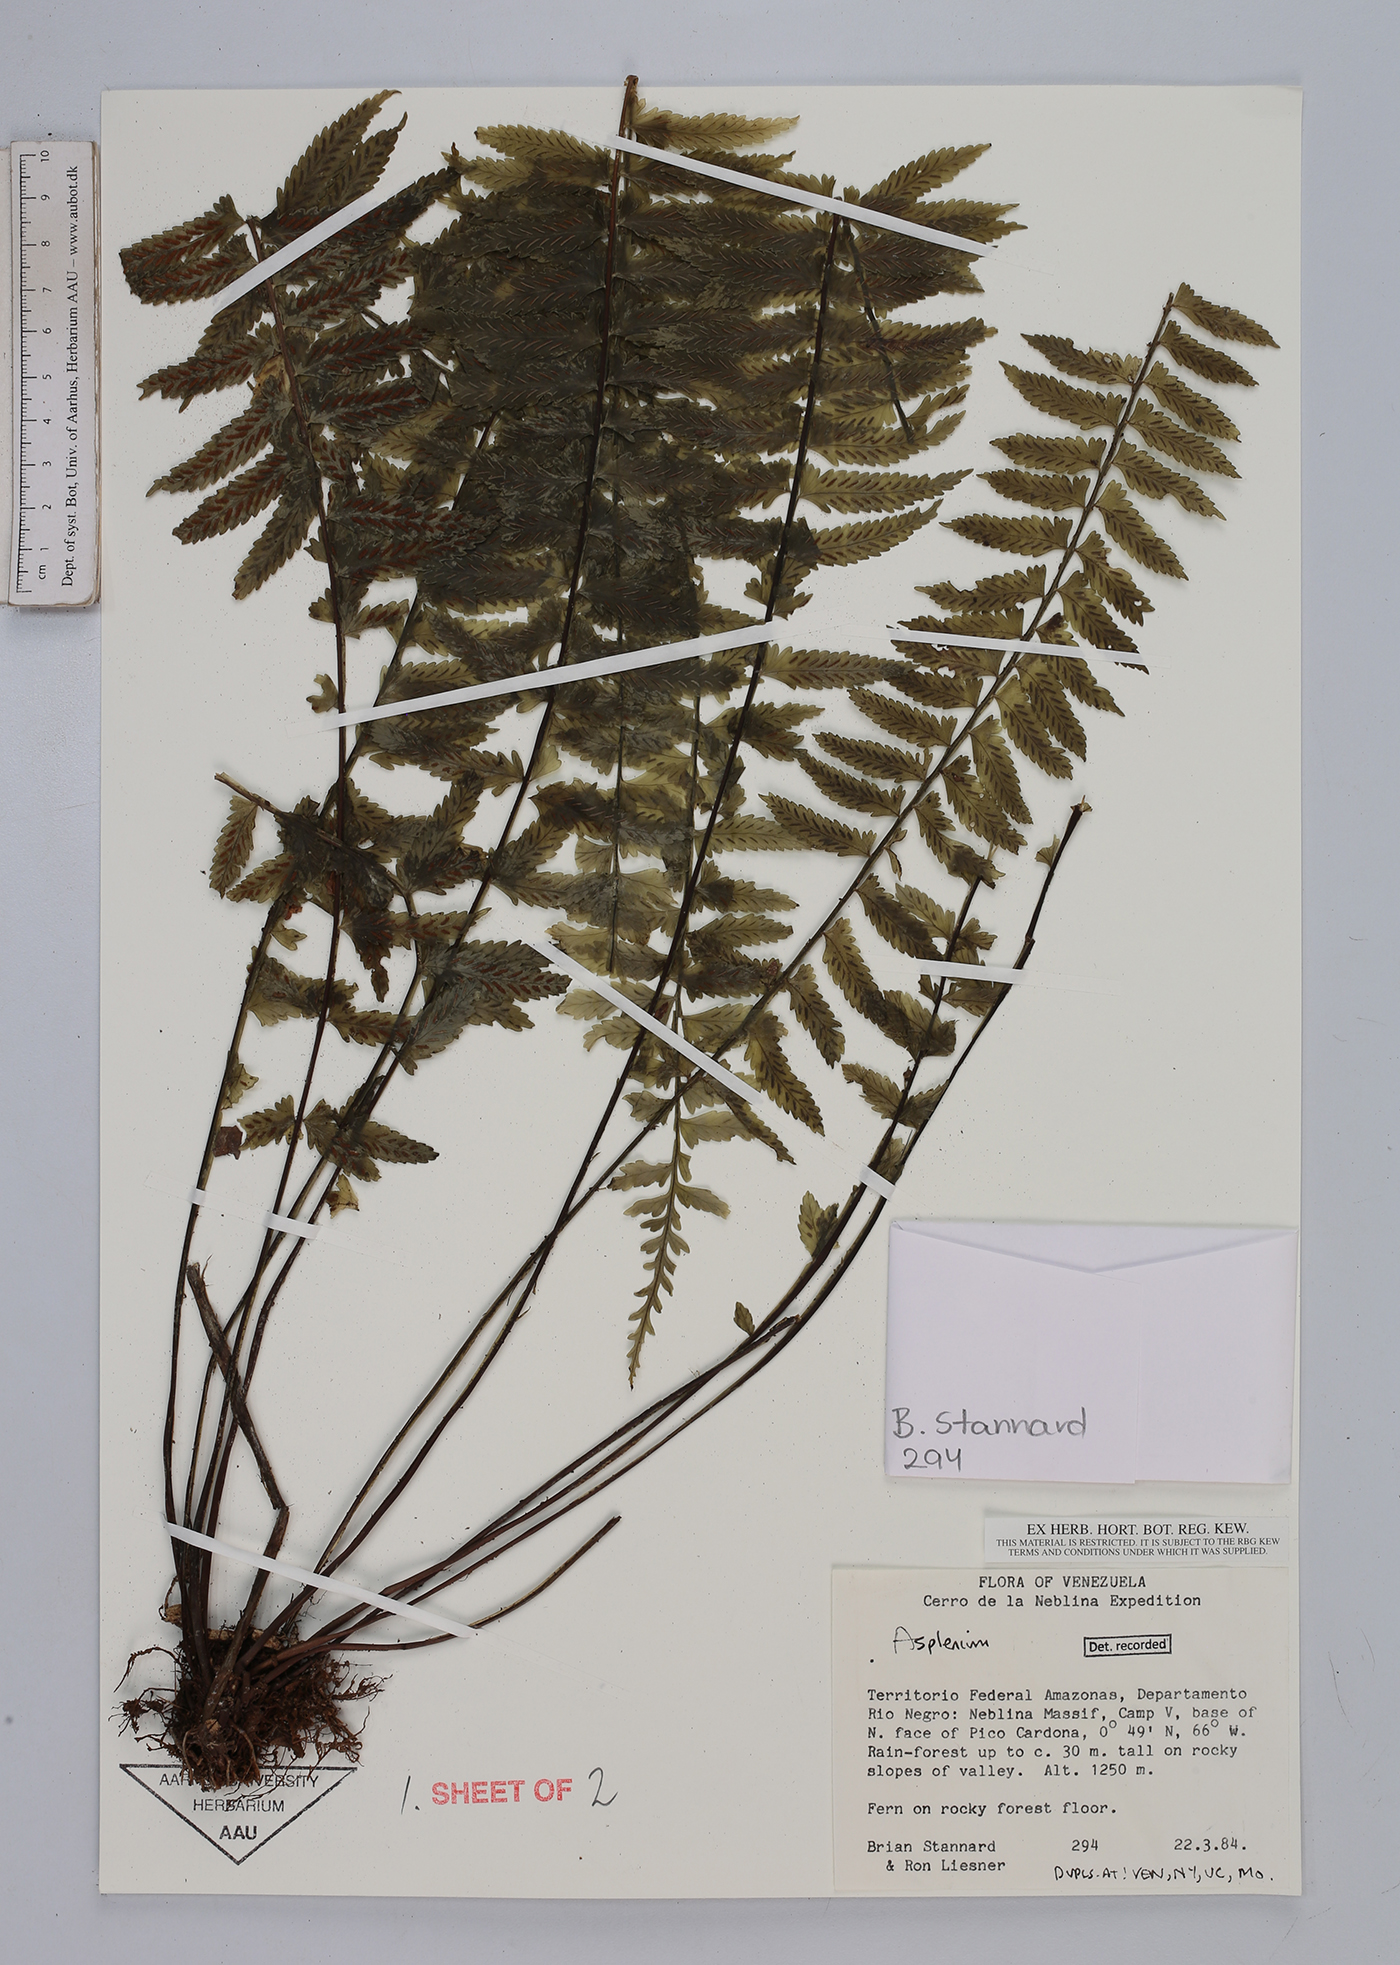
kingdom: Plantae
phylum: Tracheophyta
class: Polypodiopsida
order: Polypodiales
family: Aspleniaceae
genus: Asplenium
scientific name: Asplenium
